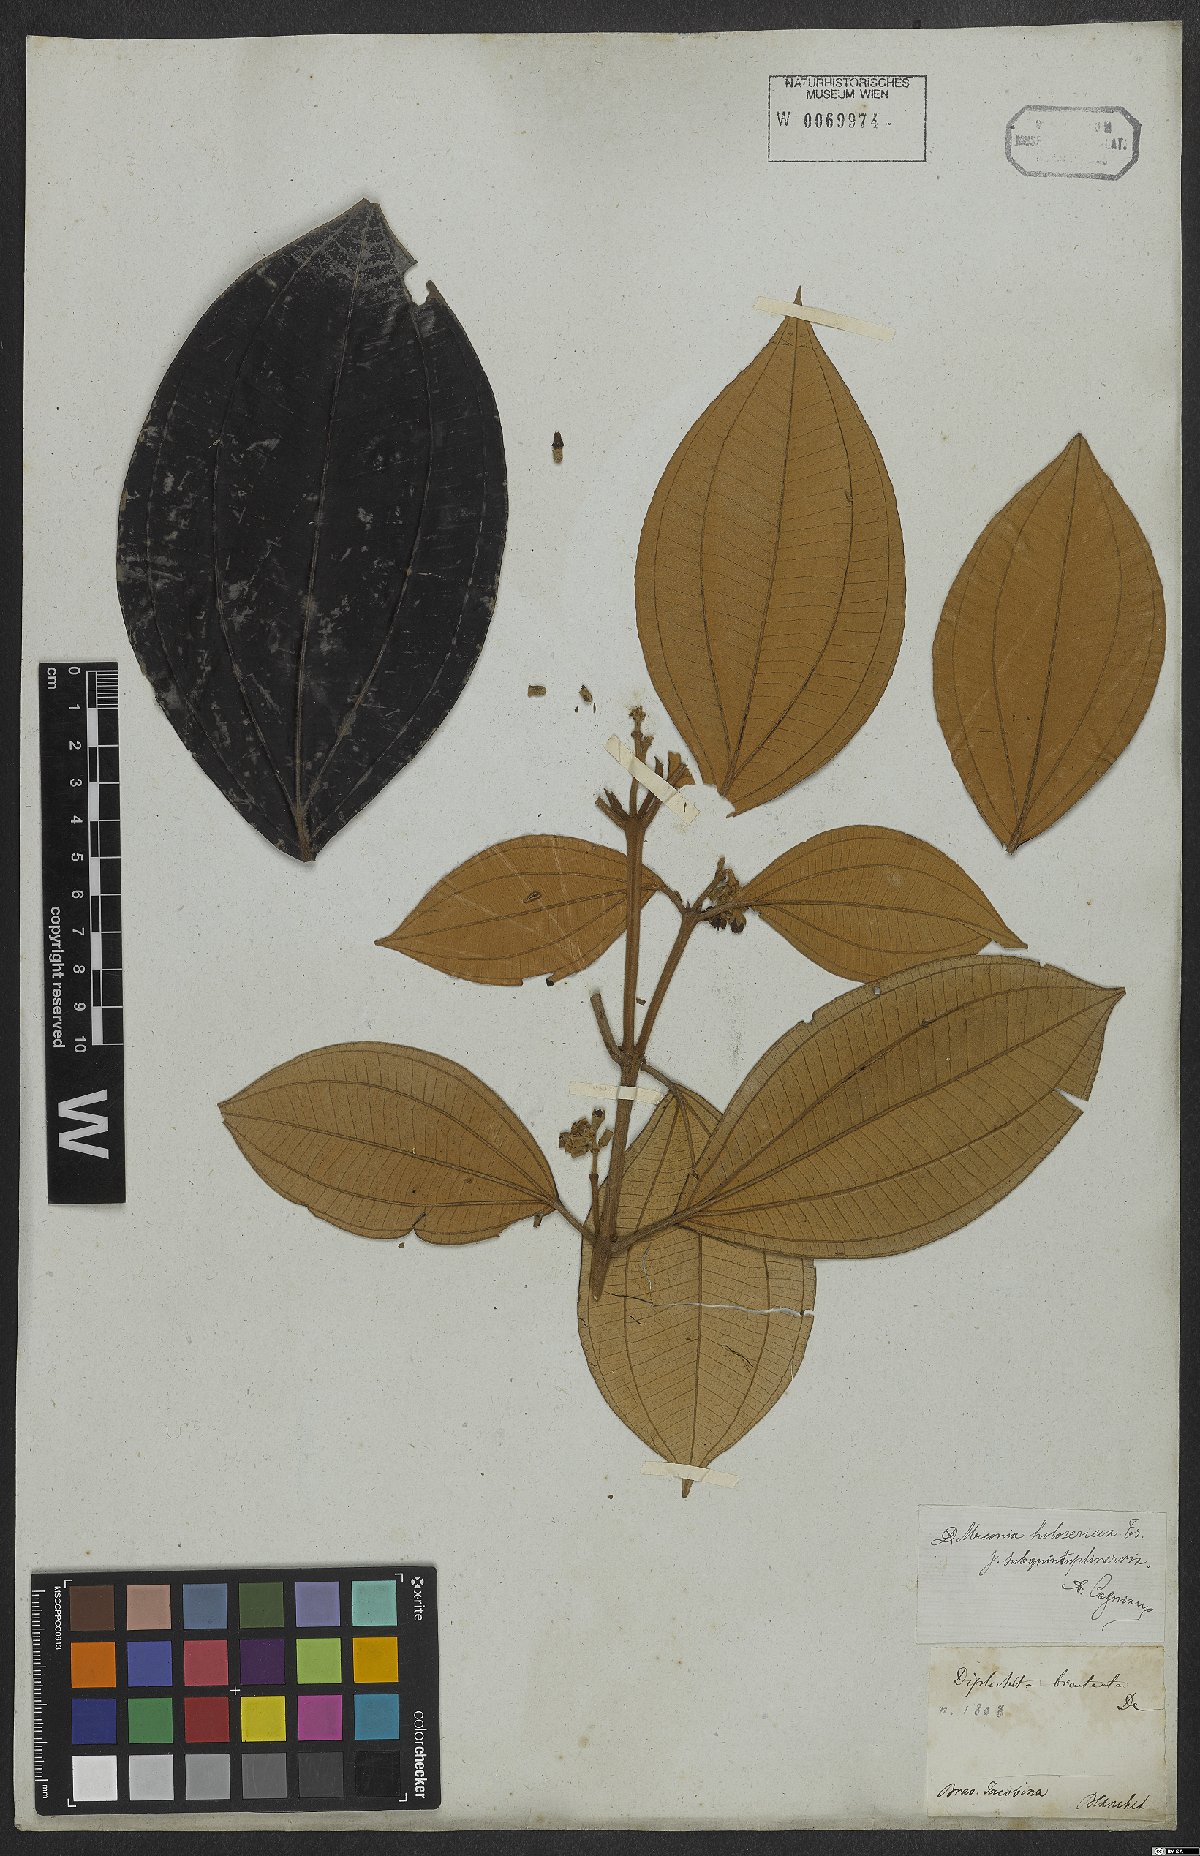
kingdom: Plantae
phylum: Tracheophyta
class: Magnoliopsida
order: Myrtales
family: Melastomataceae
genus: Miconia
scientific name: Miconia holosericea
